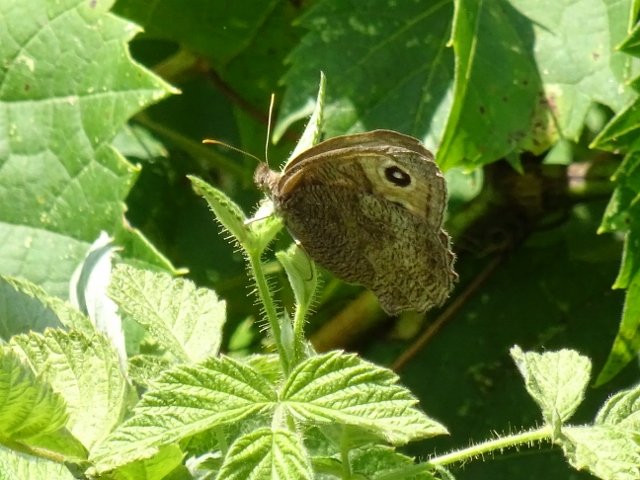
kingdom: Animalia
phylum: Arthropoda
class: Insecta
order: Lepidoptera
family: Nymphalidae
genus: Cercyonis
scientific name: Cercyonis pegala
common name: Common Wood-Nymph
